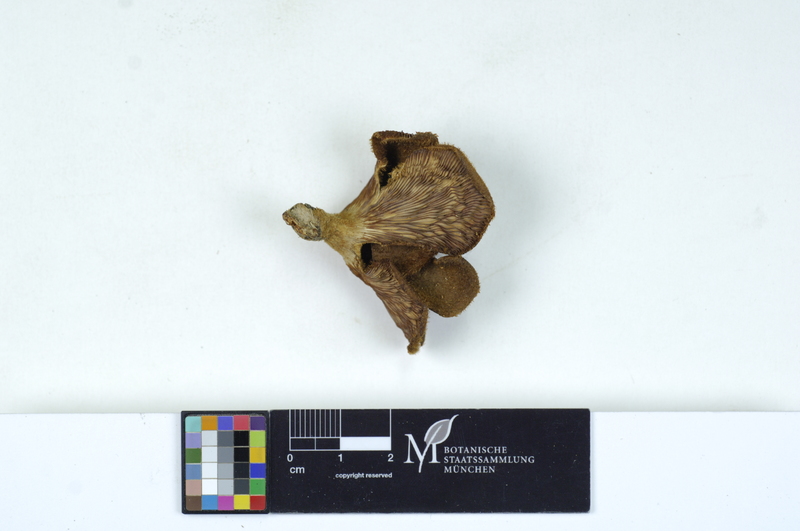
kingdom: Plantae
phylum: Tracheophyta
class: Magnoliopsida
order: Malpighiales
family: Salicaceae
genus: Populus
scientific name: Populus
